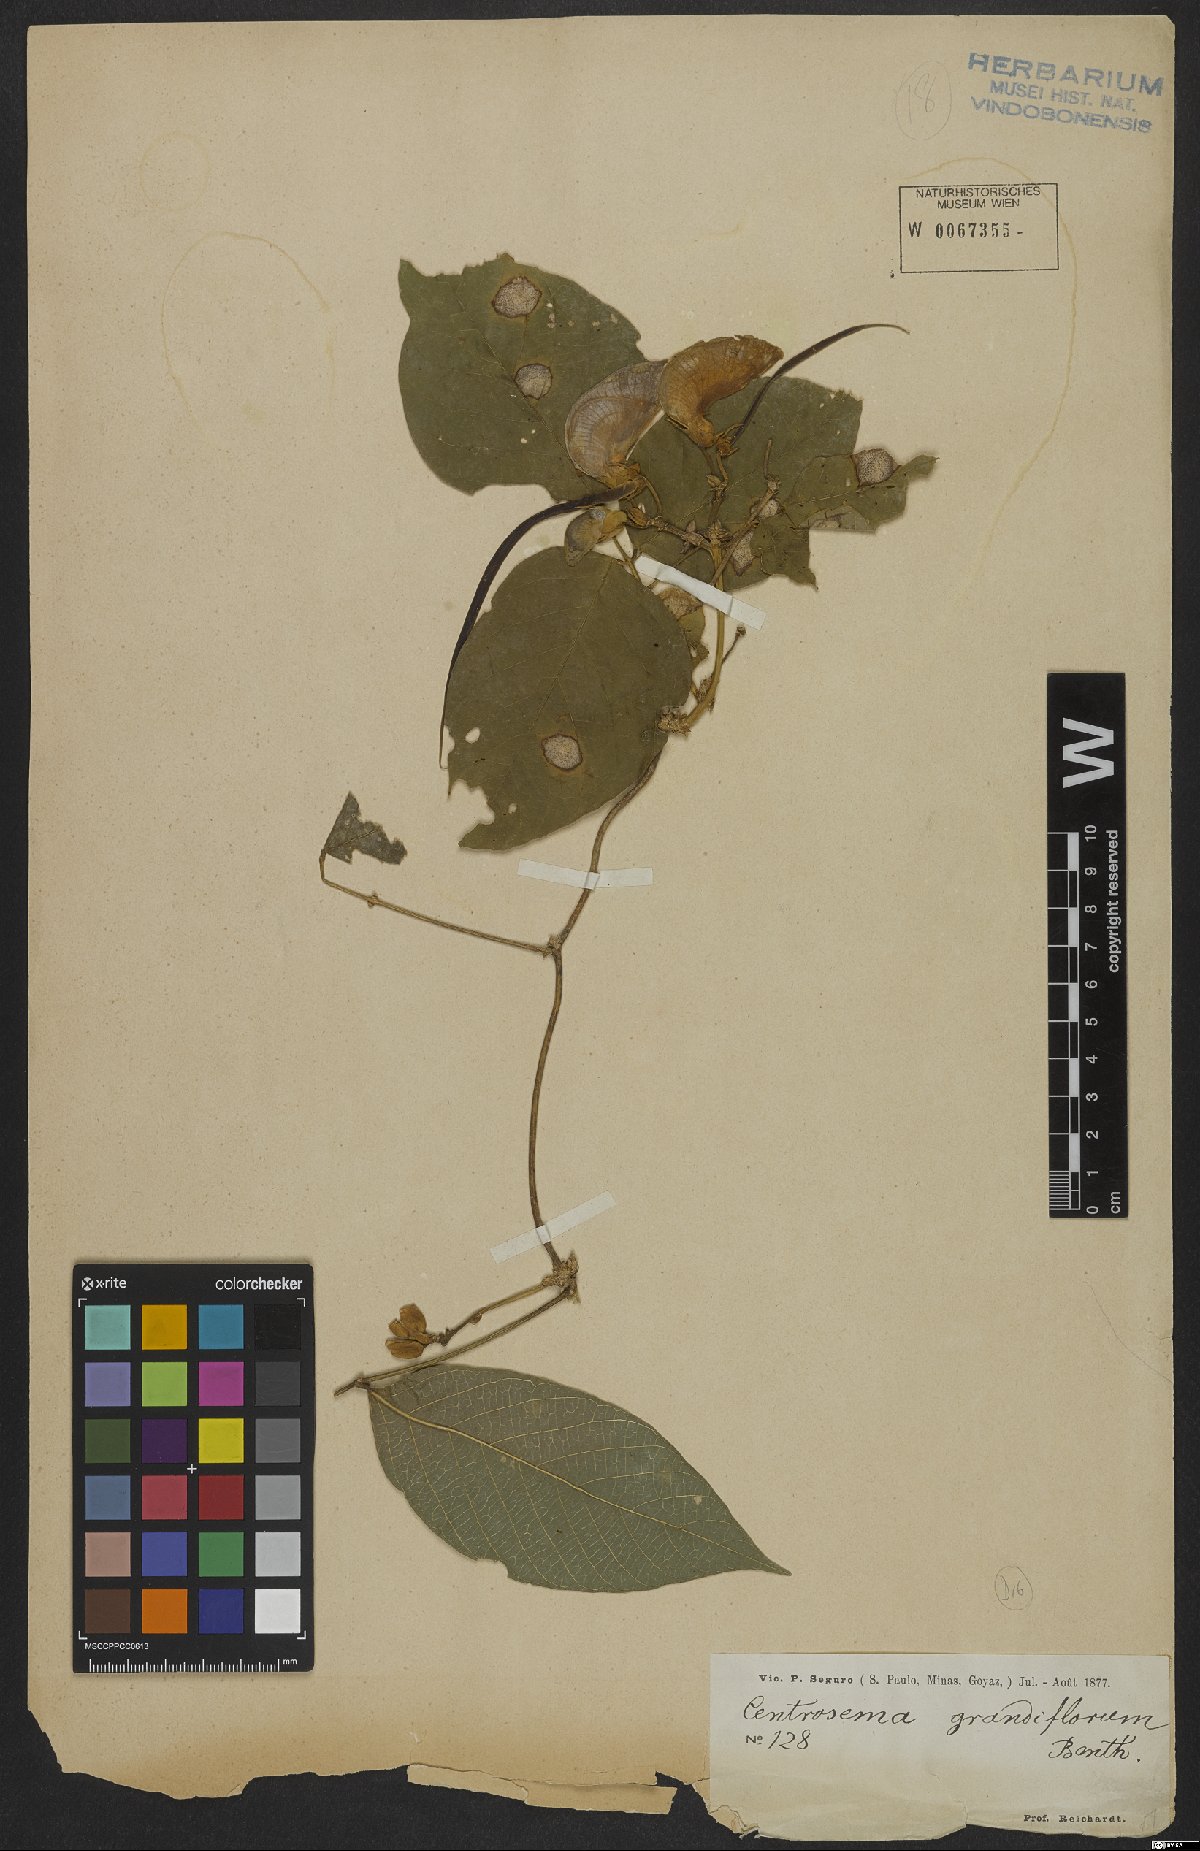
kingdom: Plantae
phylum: Tracheophyta
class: Magnoliopsida
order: Fabales
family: Fabaceae
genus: Centrosema
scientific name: Centrosema grandiflorum
